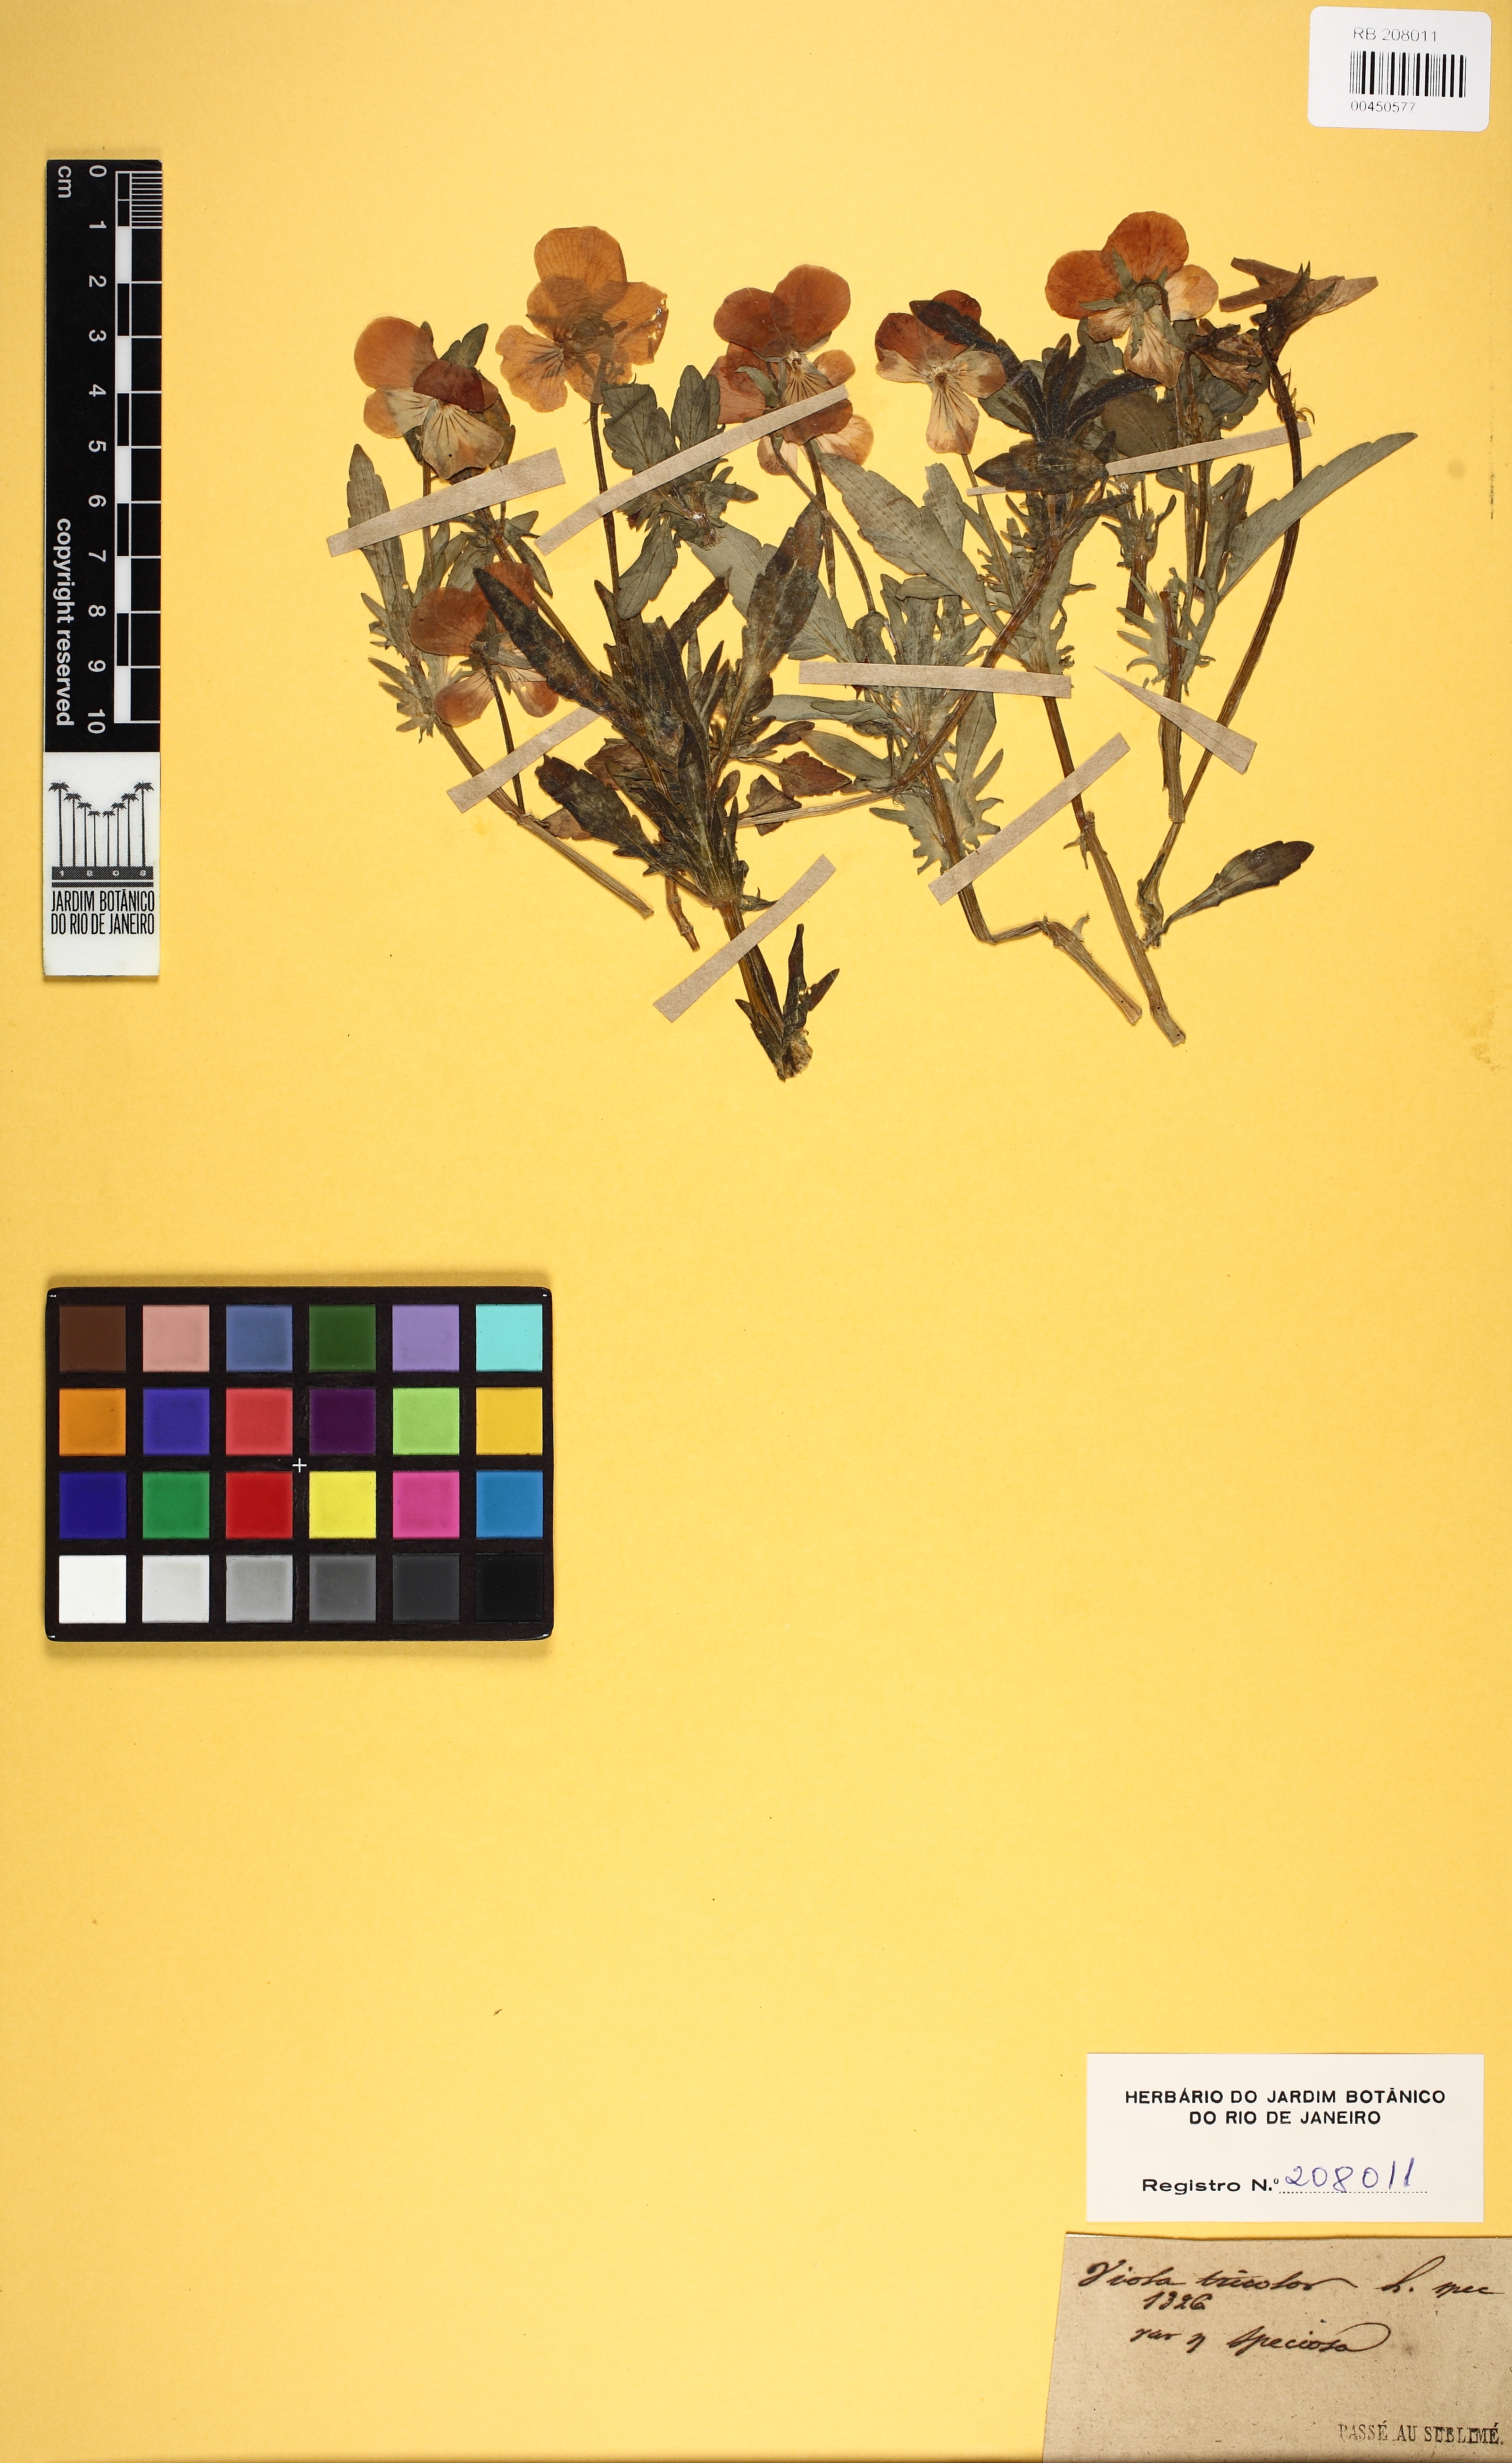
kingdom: Plantae
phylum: Tracheophyta
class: Magnoliopsida
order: Malpighiales
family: Violaceae
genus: Viola
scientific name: Viola tricolor
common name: Pansy
